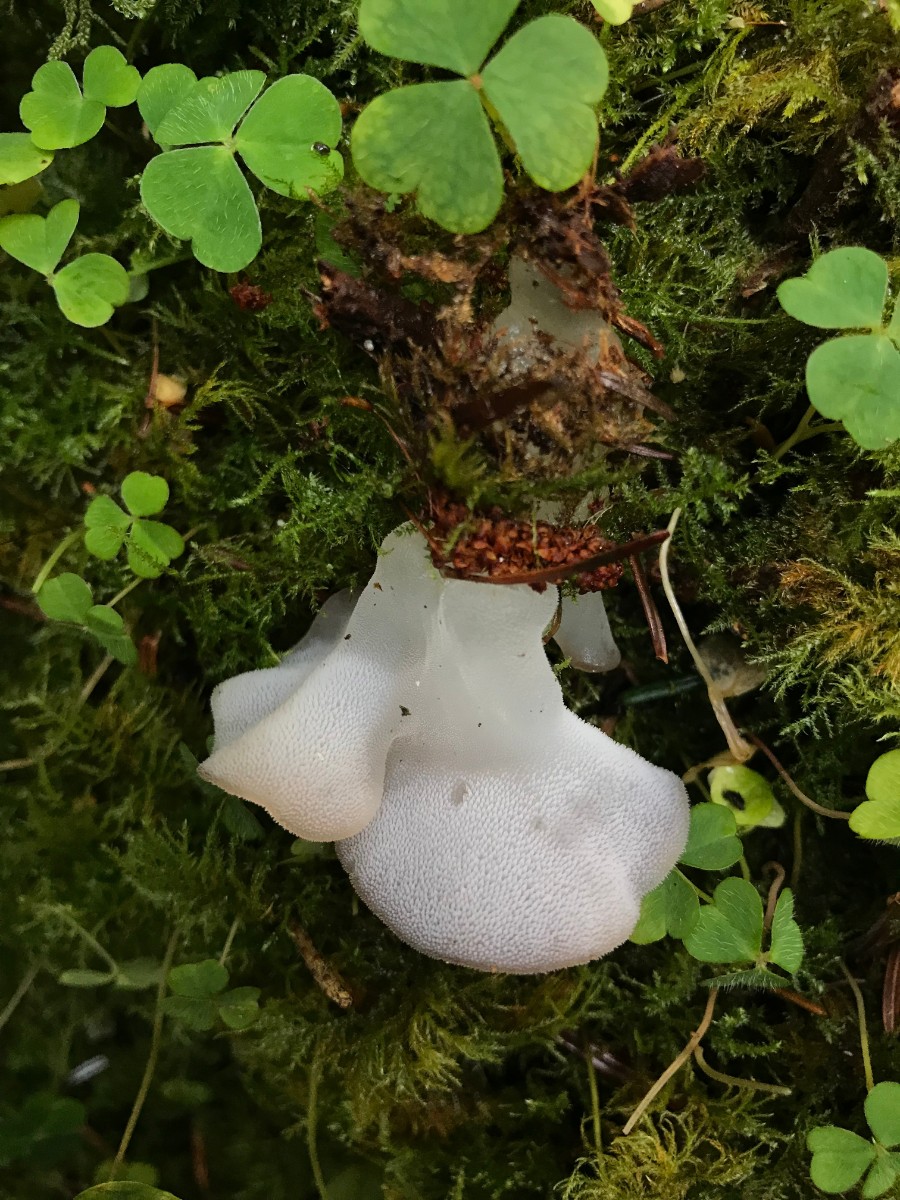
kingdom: Fungi
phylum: Basidiomycota
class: Agaricomycetes
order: Auriculariales
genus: Pseudohydnum
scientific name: Pseudohydnum gelatinosum
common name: bævretand
